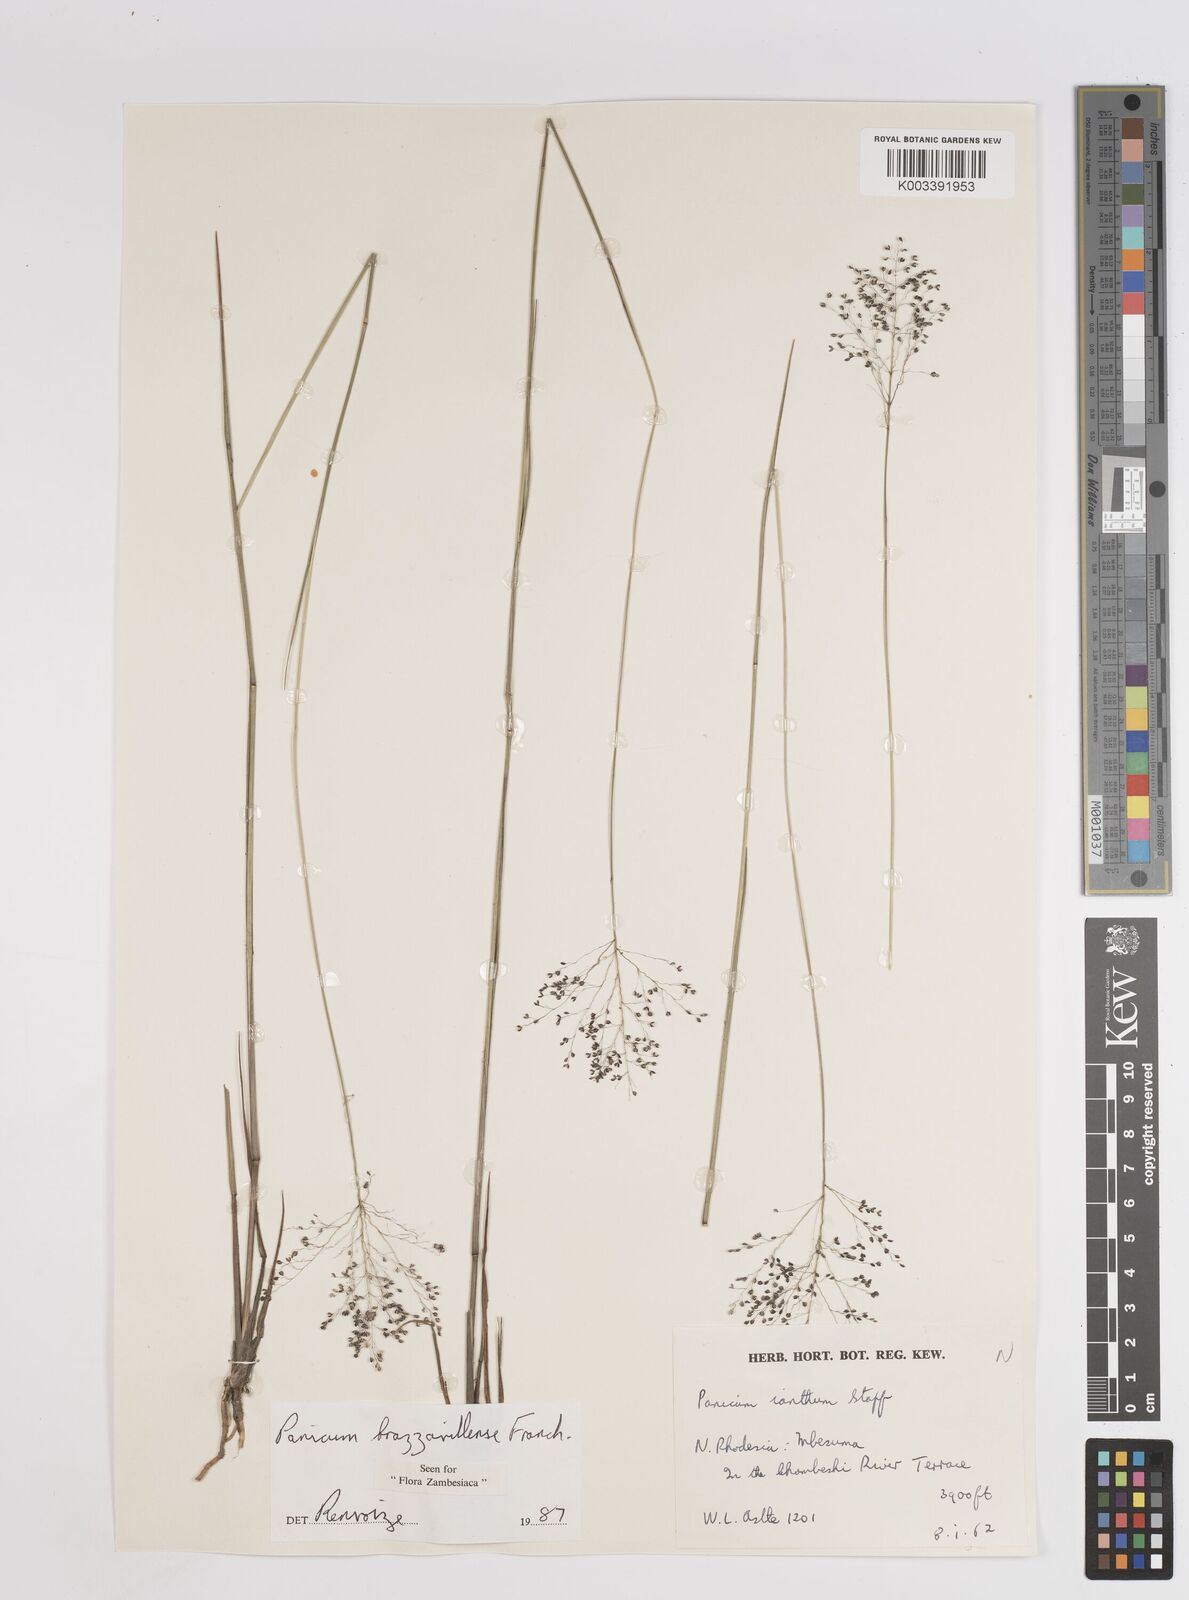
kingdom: Plantae
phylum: Tracheophyta
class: Liliopsida
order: Poales
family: Poaceae
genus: Trichanthecium
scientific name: Trichanthecium brazzavillense
